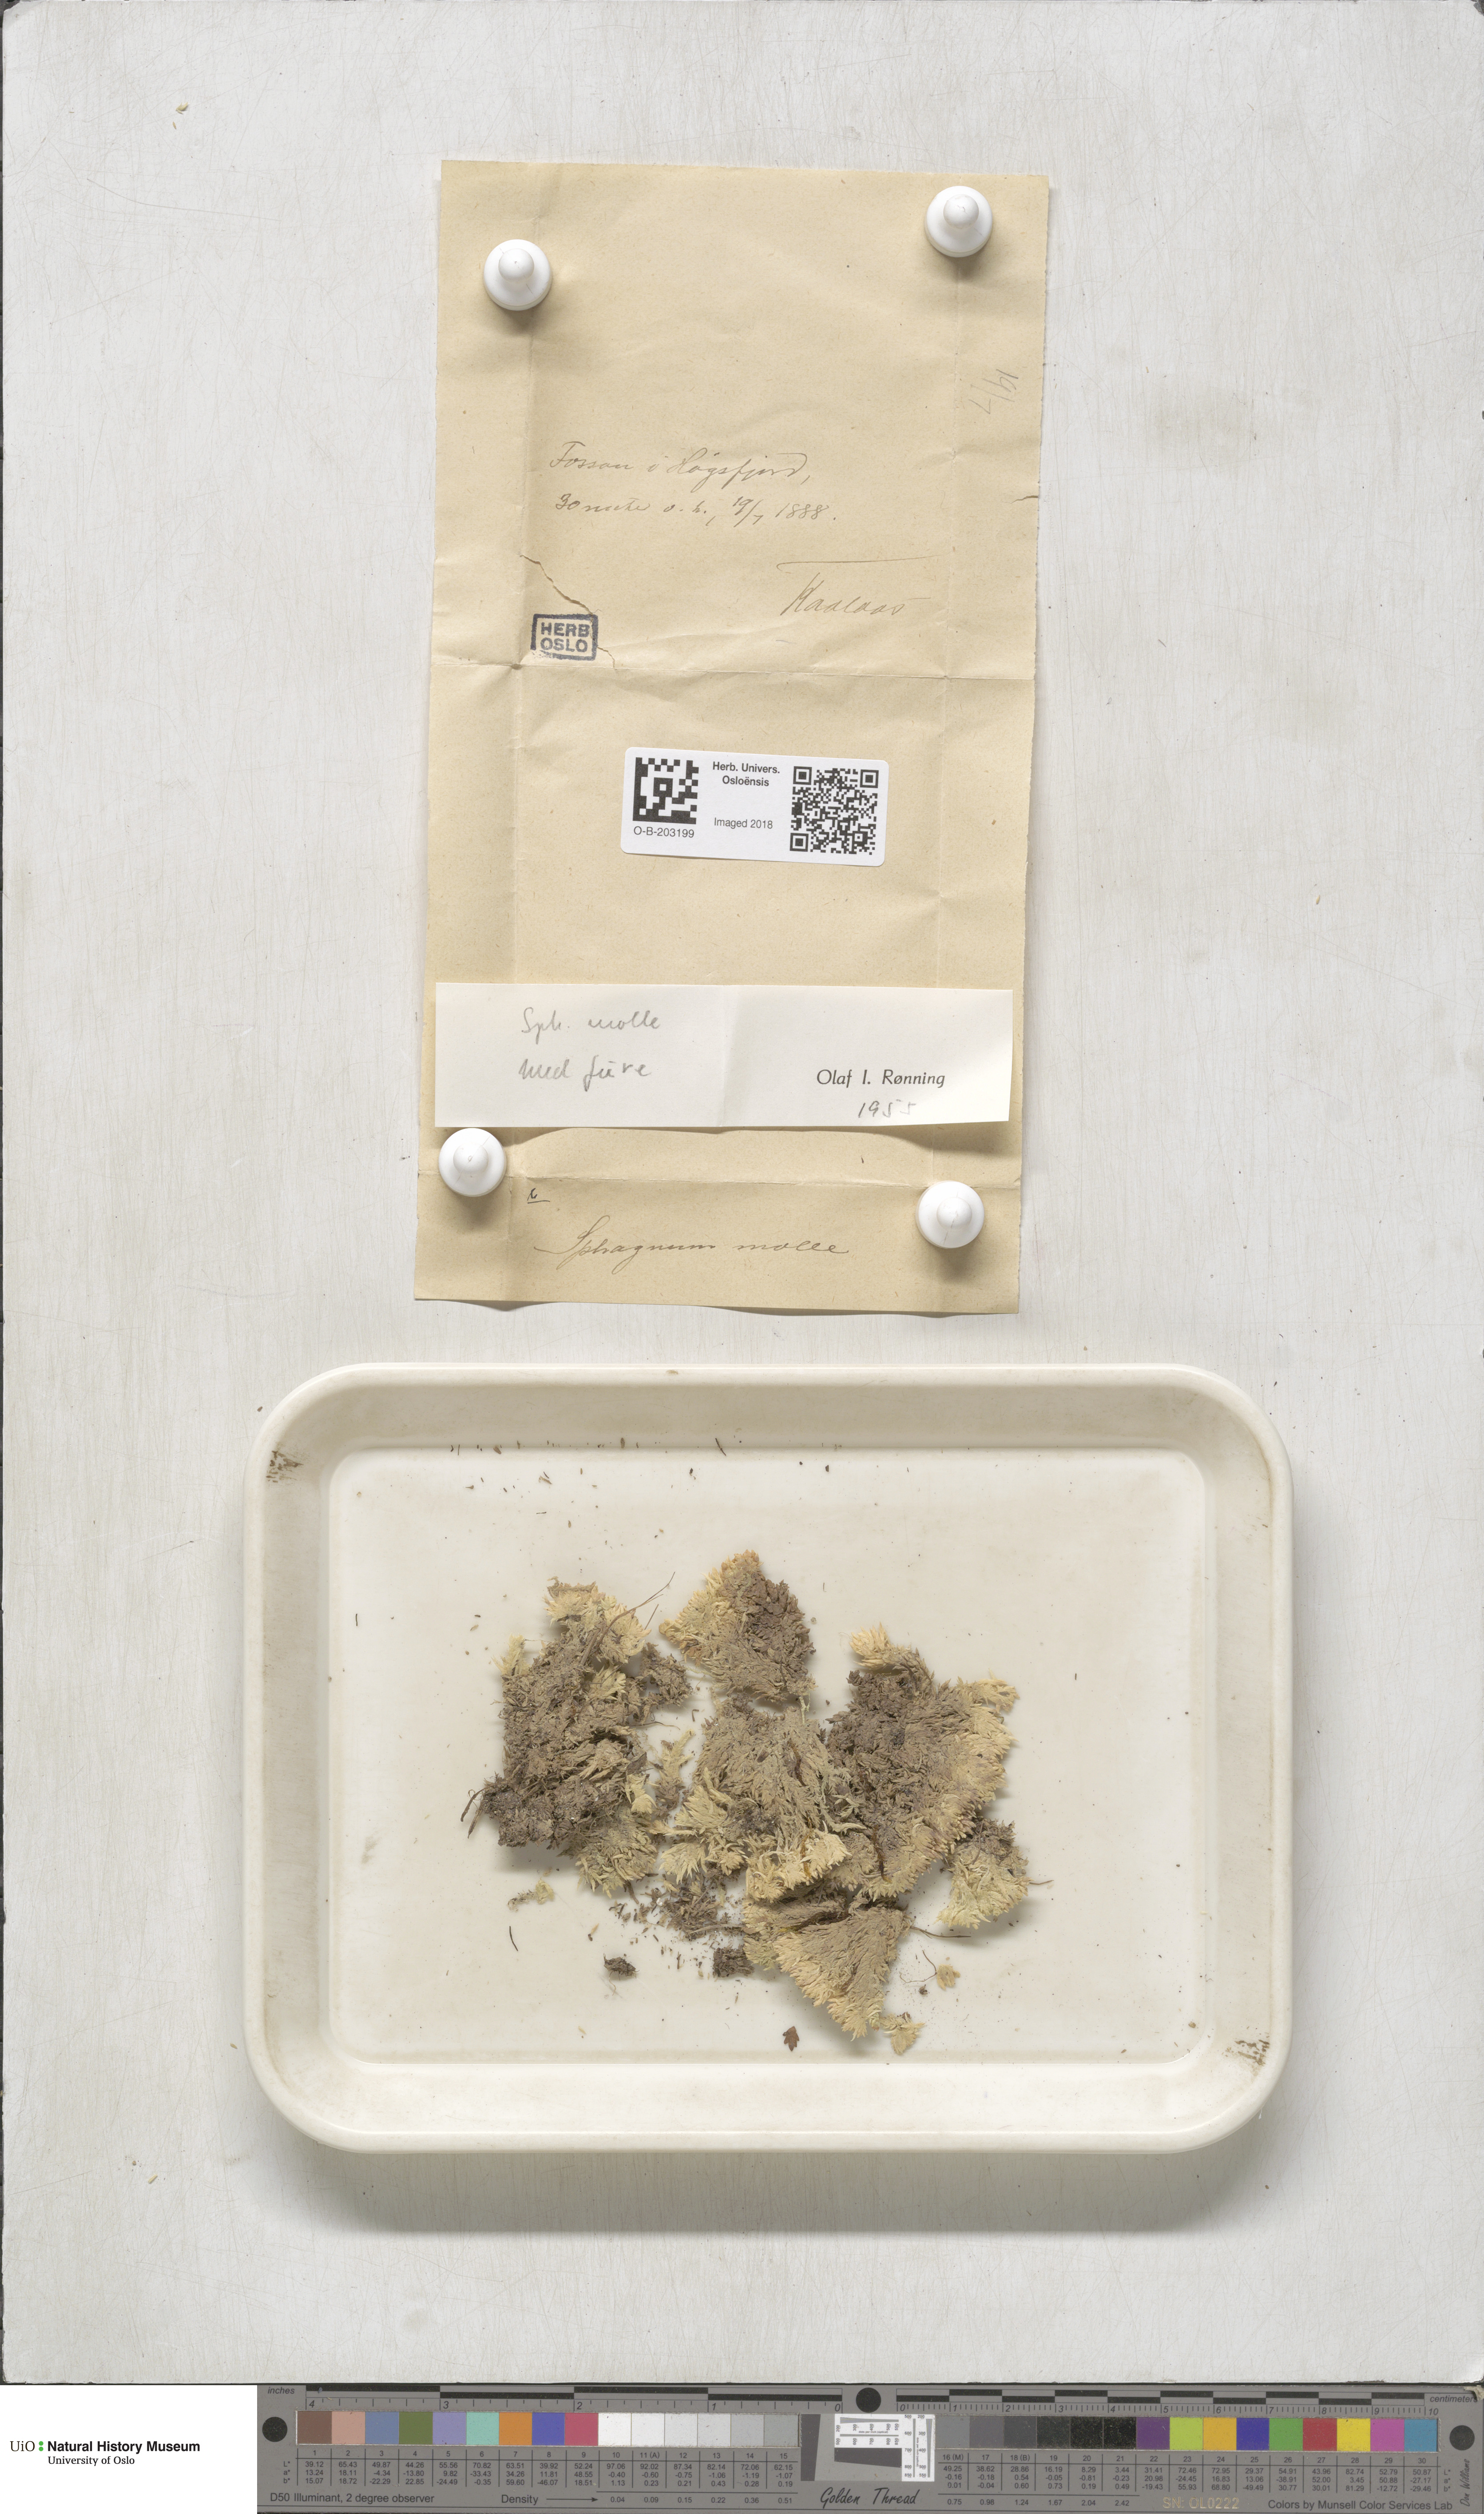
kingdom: Plantae
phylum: Bryophyta
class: Sphagnopsida
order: Sphagnales
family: Sphagnaceae
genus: Sphagnum
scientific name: Sphagnum molle
